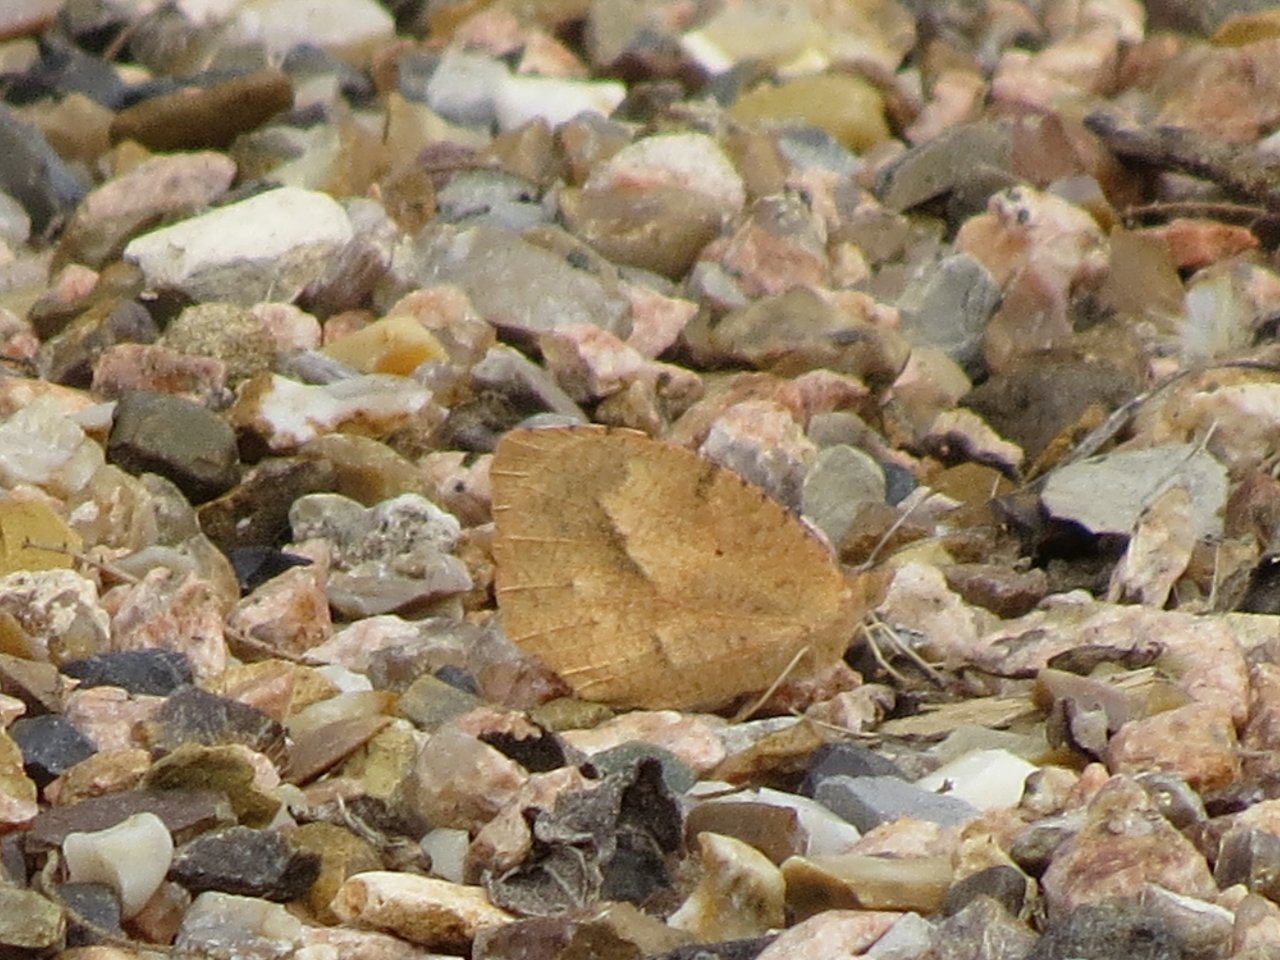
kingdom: Animalia
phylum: Arthropoda
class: Insecta
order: Lepidoptera
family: Pieridae
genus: Abaeis
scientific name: Abaeis nicippe
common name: Sleepy Orange
